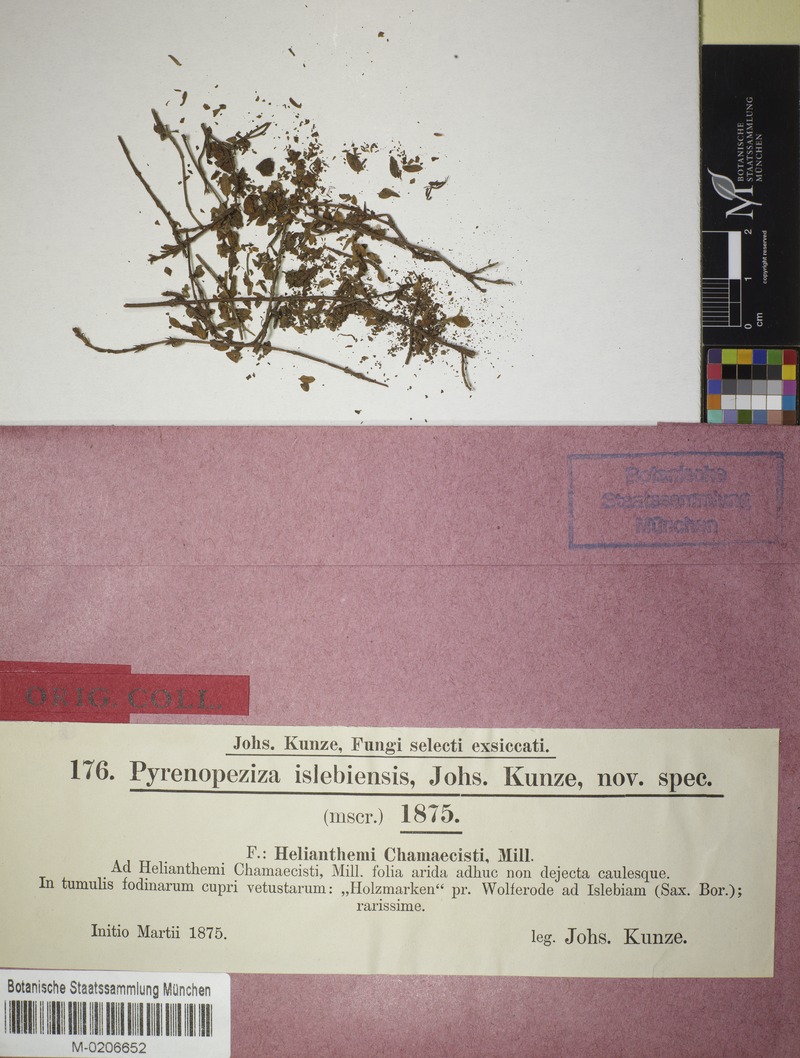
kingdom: Fungi
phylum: Ascomycota
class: Leotiomycetes
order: Helotiales
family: Ploettnerulaceae
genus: Pyrenopeziza
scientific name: Pyrenopeziza islebiensis
